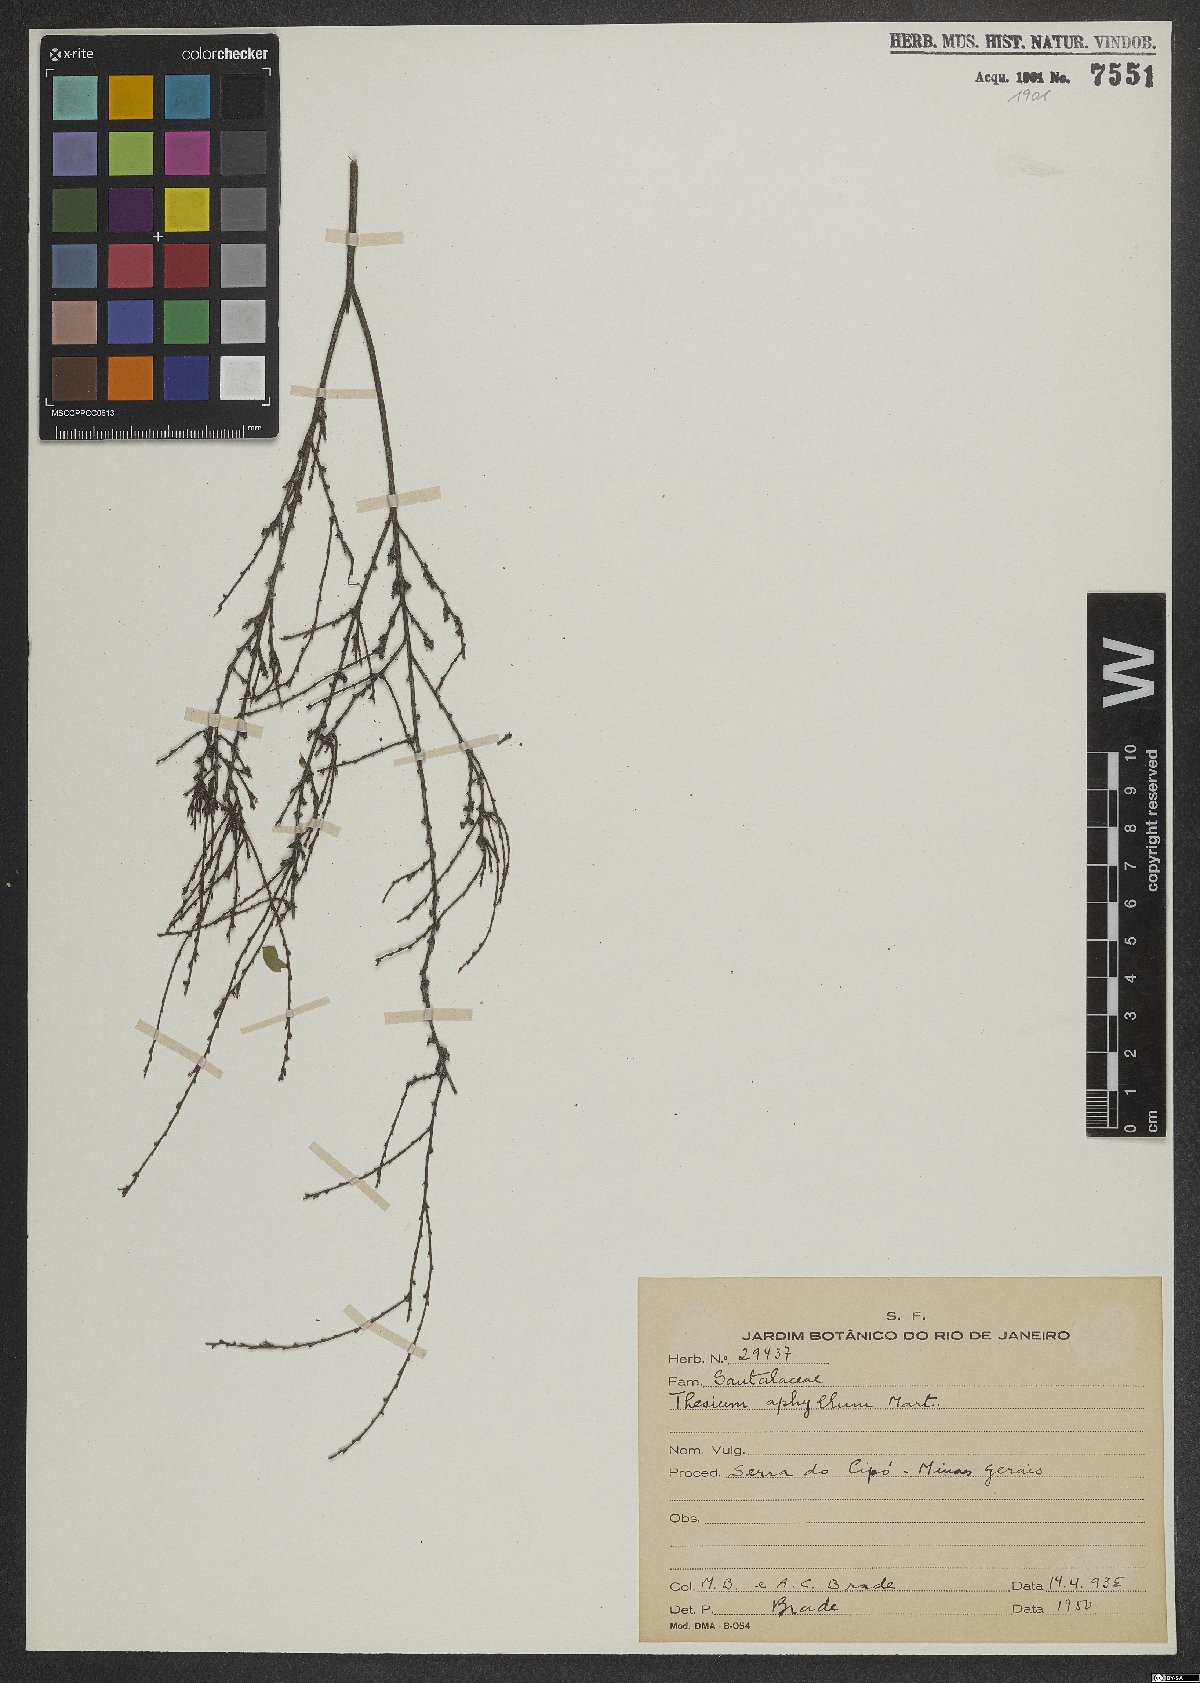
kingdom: Plantae
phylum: Tracheophyta
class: Magnoliopsida
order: Santalales
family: Thesiaceae
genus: Austroamericium
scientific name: Austroamericium aphyllum
